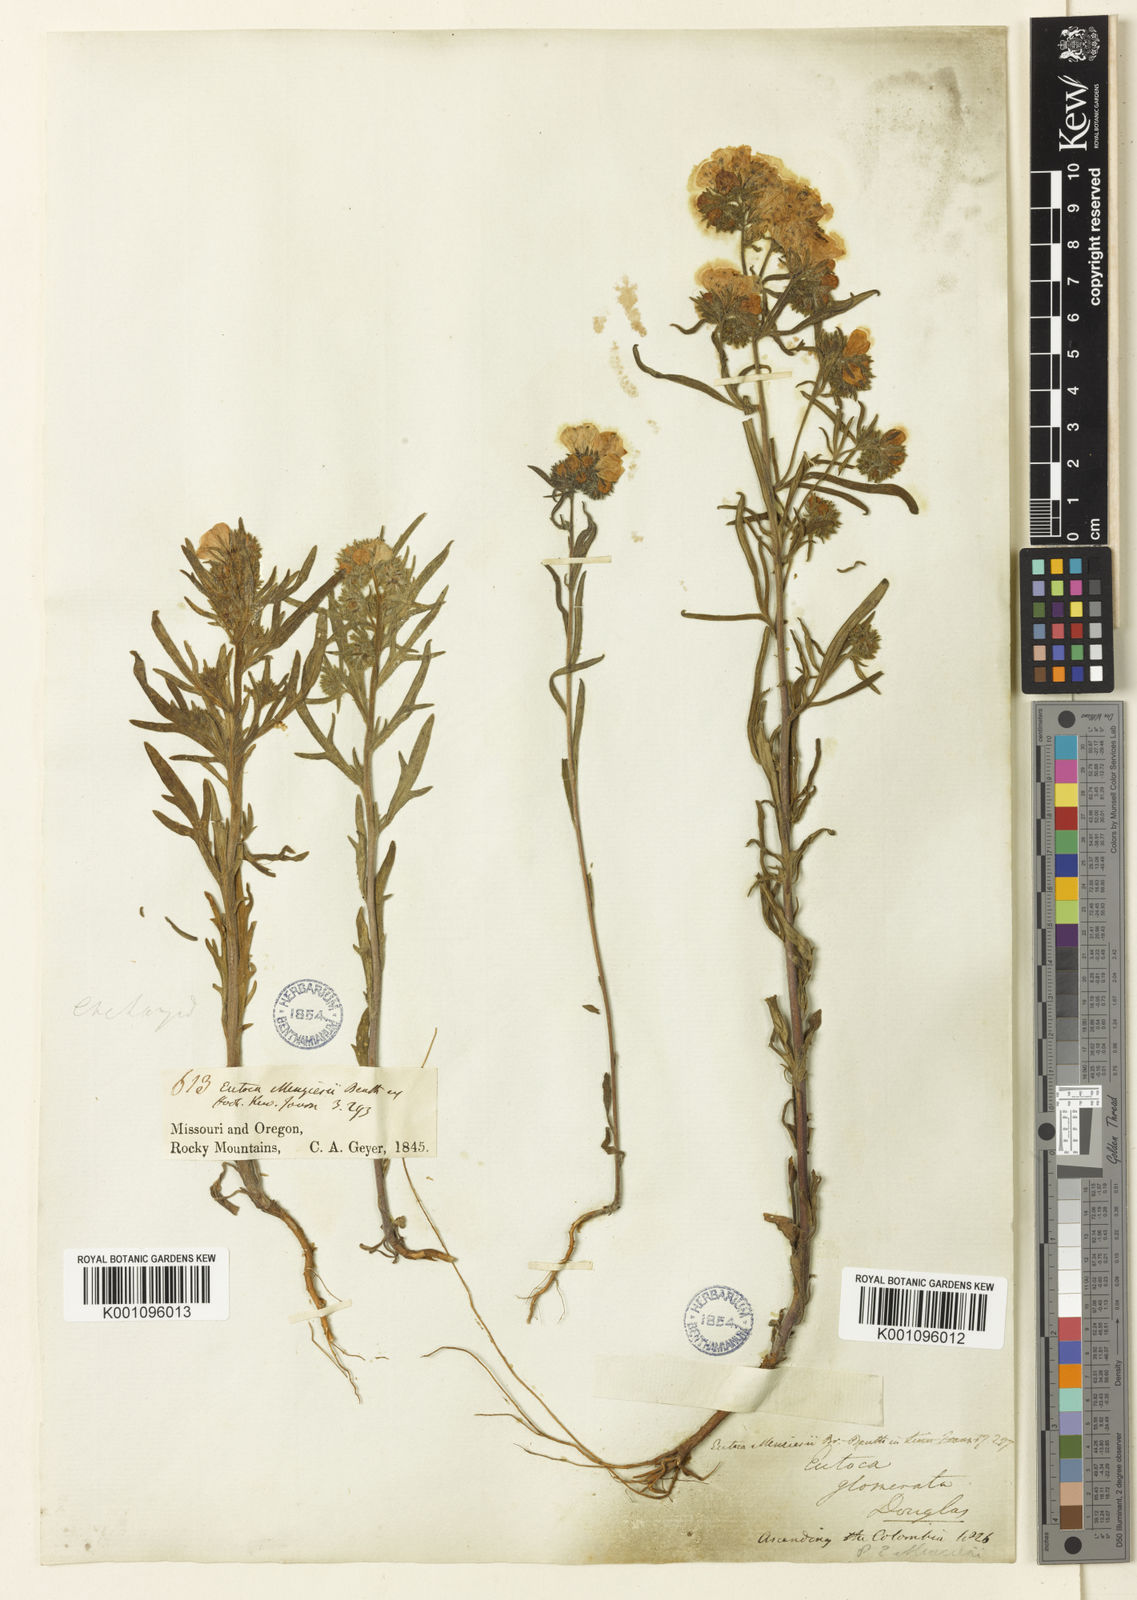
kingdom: Plantae
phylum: Tracheophyta
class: Magnoliopsida
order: Boraginales
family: Hydrophyllaceae
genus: Phacelia
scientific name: Phacelia linearis
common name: Linear-leaved phacelia
